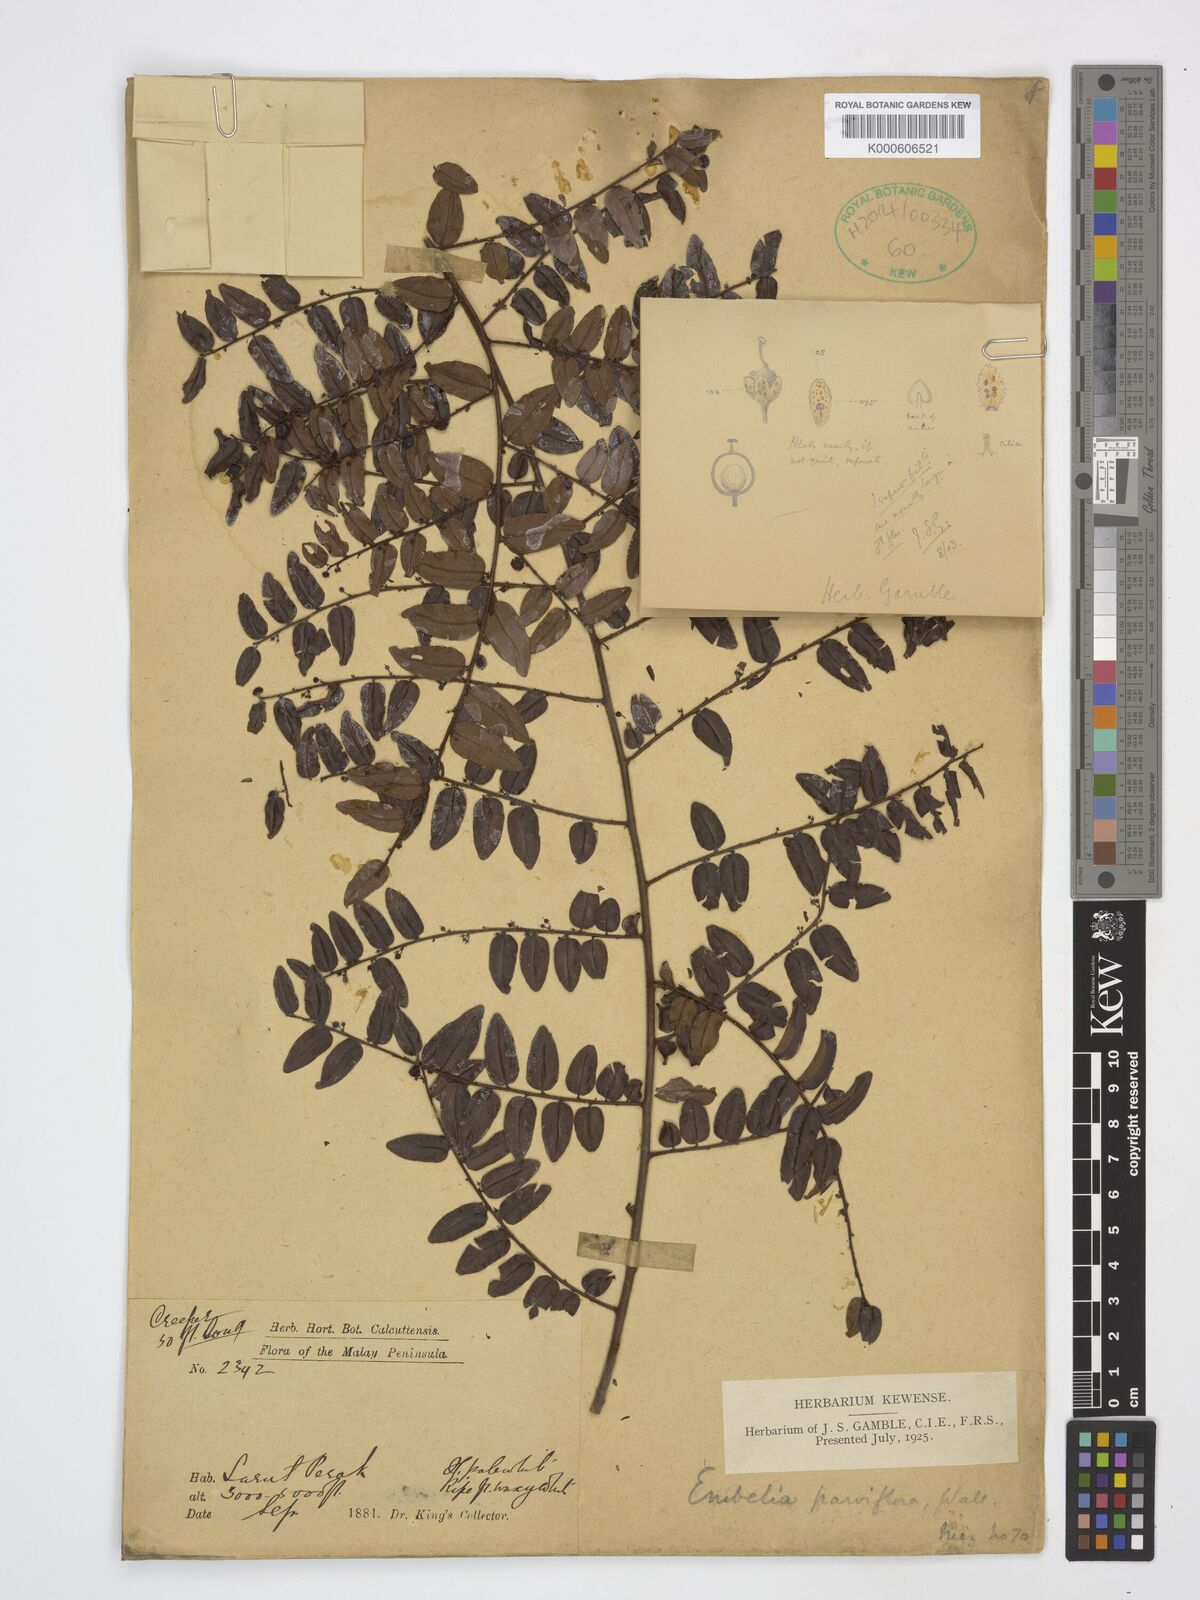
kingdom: Plantae
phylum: Tracheophyta
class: Magnoliopsida
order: Ericales
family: Primulaceae
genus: Embelia
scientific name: Embelia parviflora
